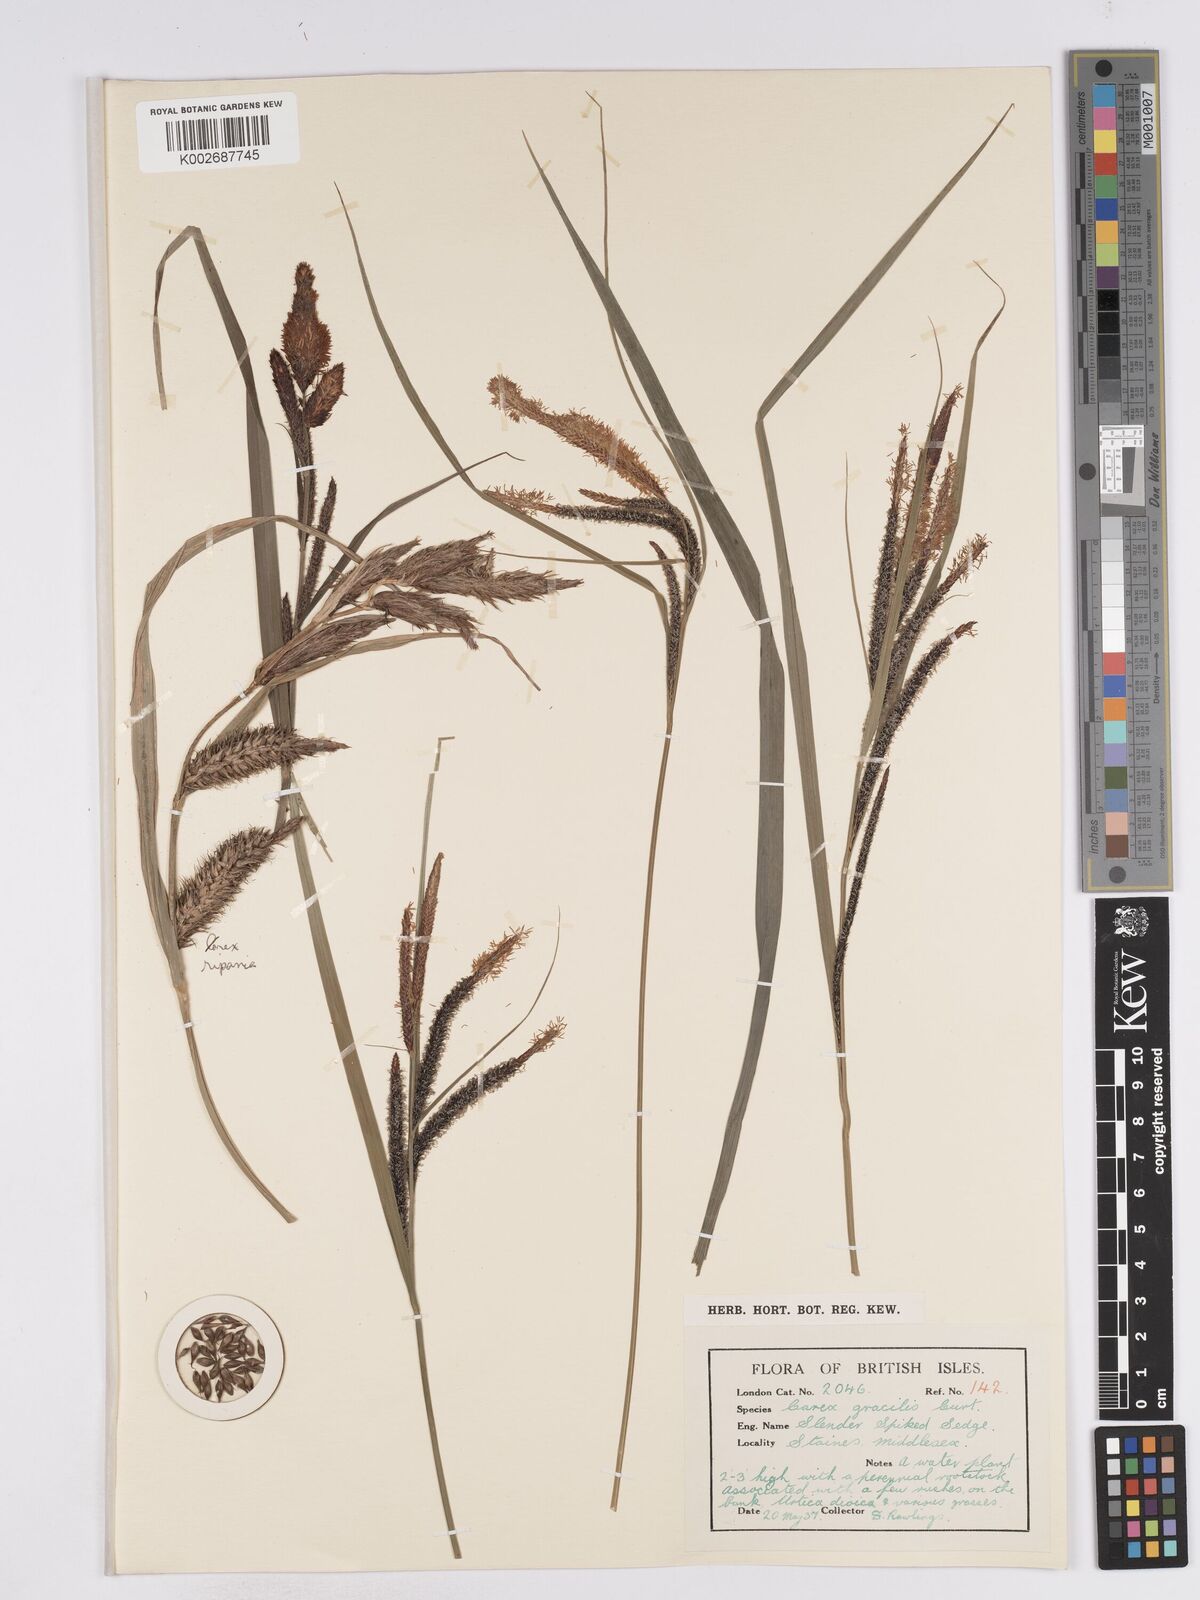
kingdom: Plantae
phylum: Tracheophyta
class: Liliopsida
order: Poales
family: Cyperaceae
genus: Carex
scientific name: Carex acuta
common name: Slender tufted-sedge
